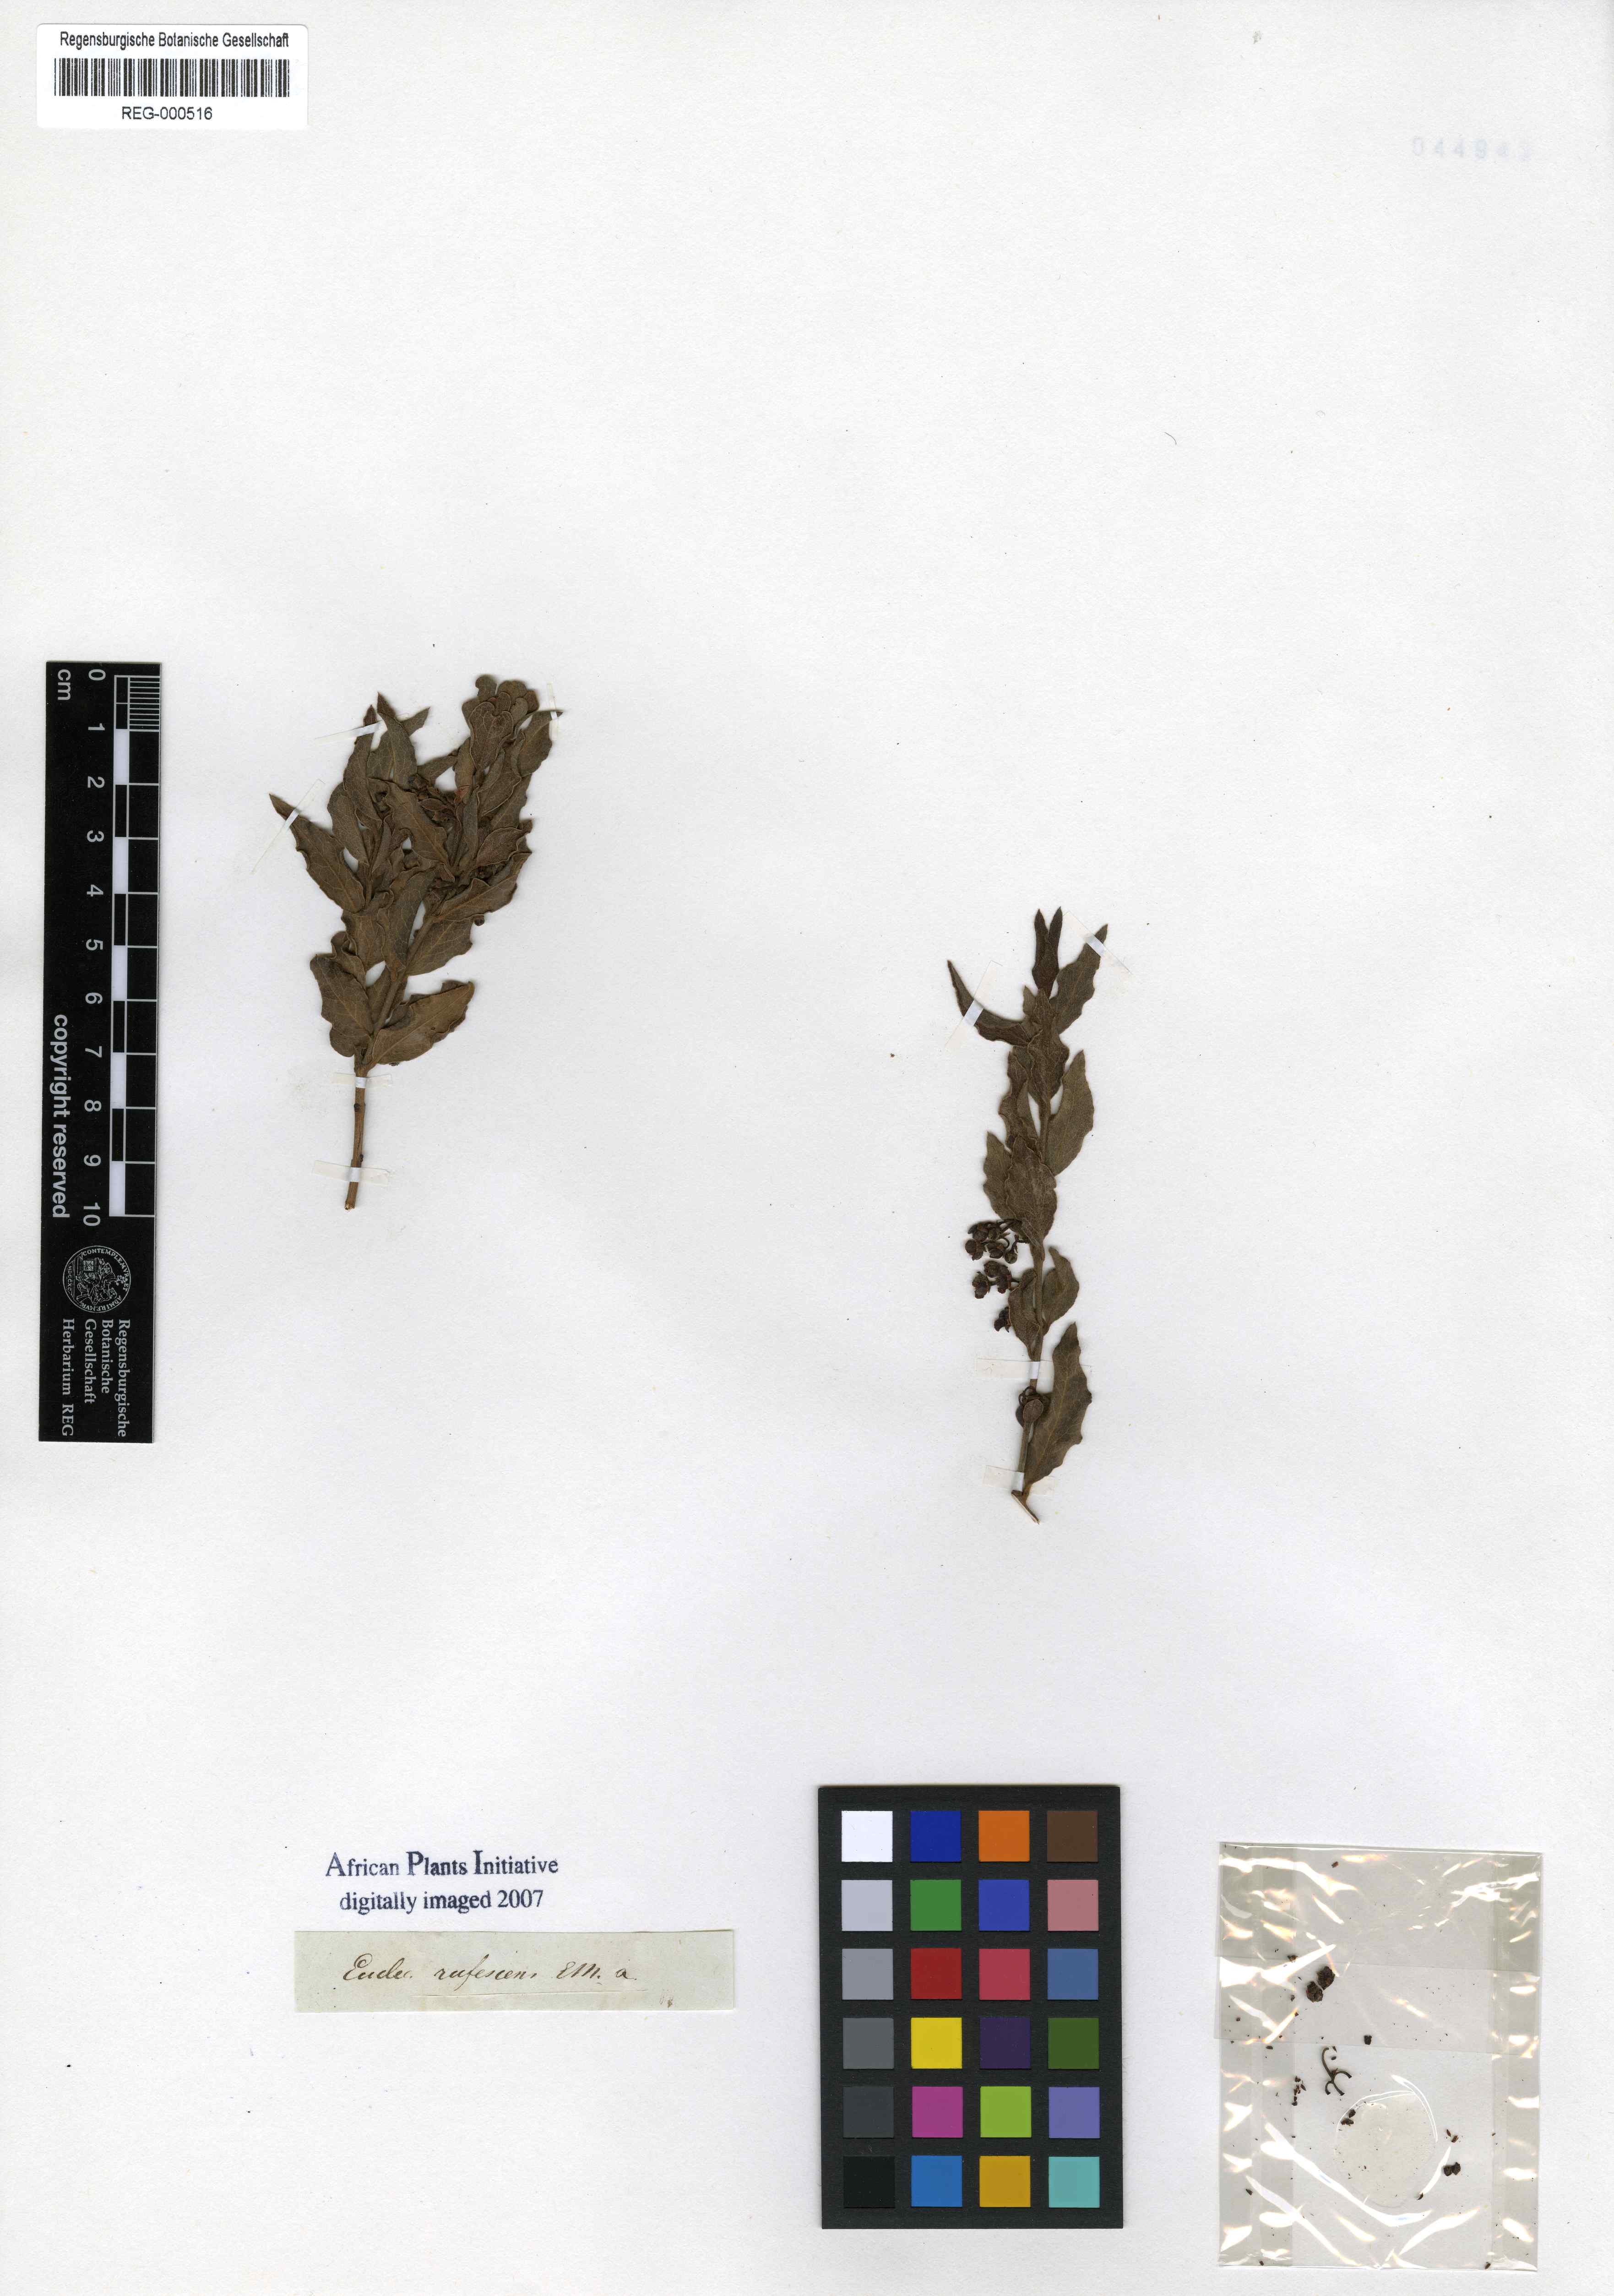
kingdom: Plantae
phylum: Tracheophyta
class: Magnoliopsida
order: Ericales
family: Ebenaceae
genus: Euclea
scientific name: Euclea crispa
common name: Blue guarri
